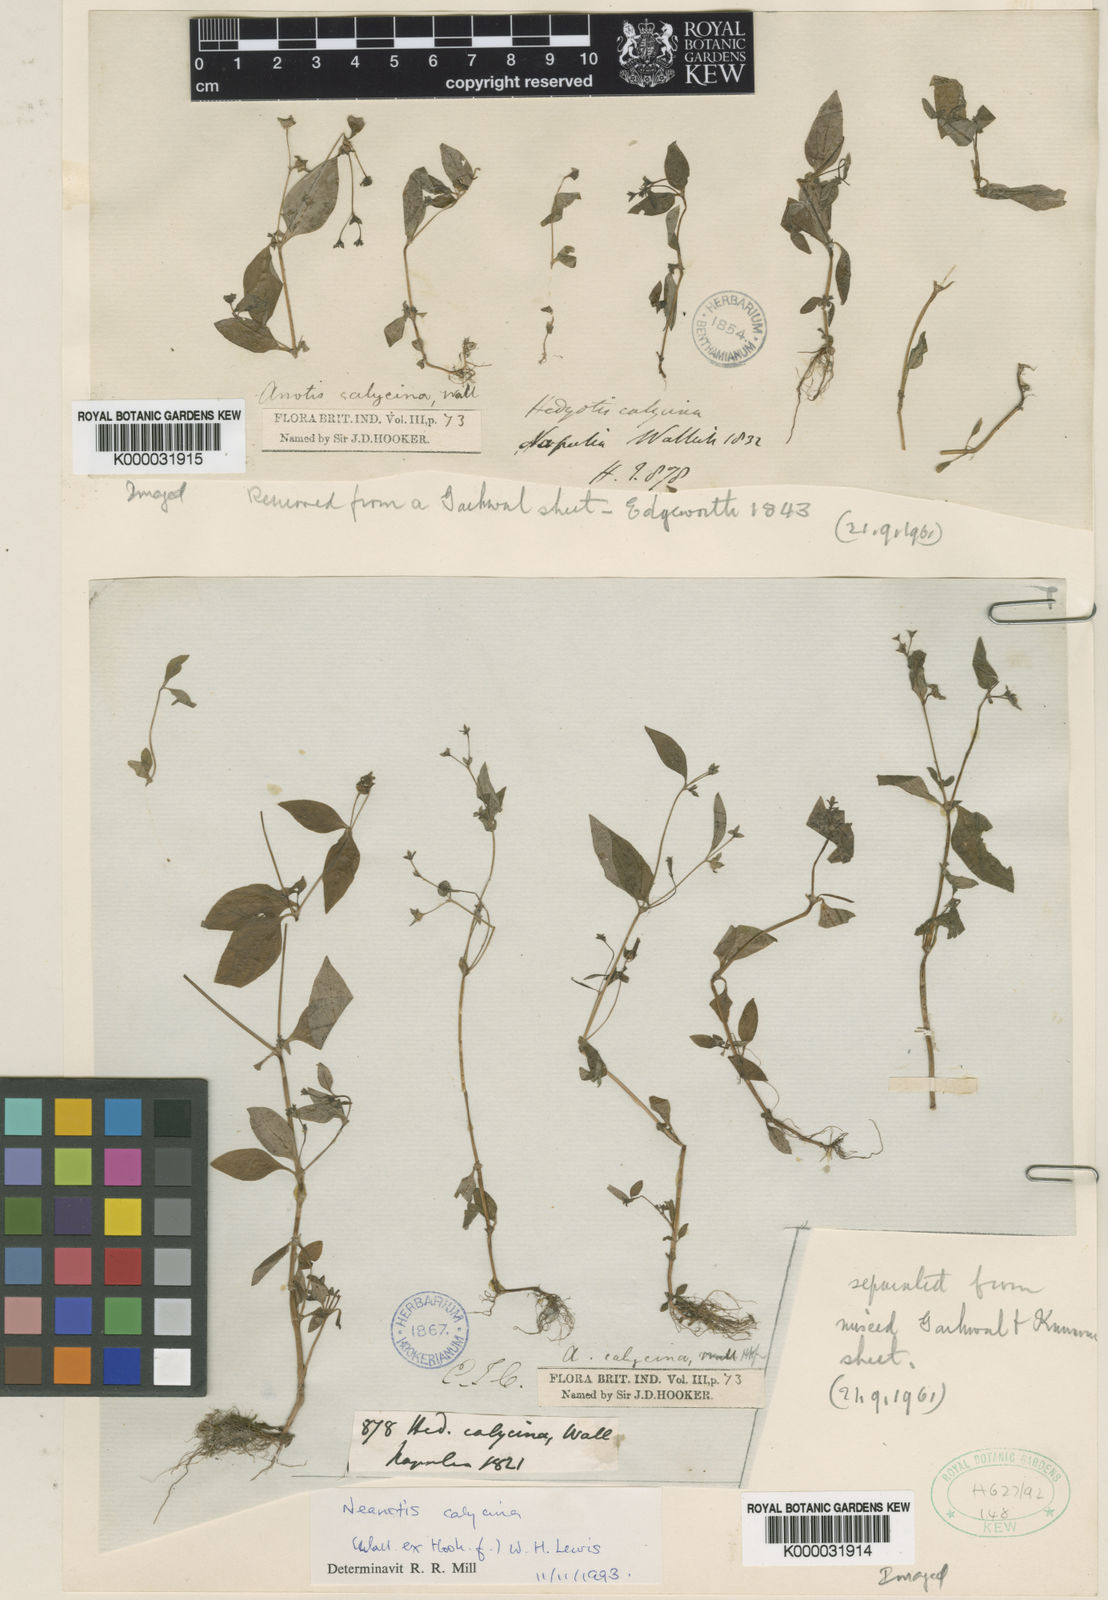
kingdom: Plantae
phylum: Tracheophyta
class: Magnoliopsida
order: Gentianales
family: Rubiaceae
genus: Neanotis
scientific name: Neanotis calycina
